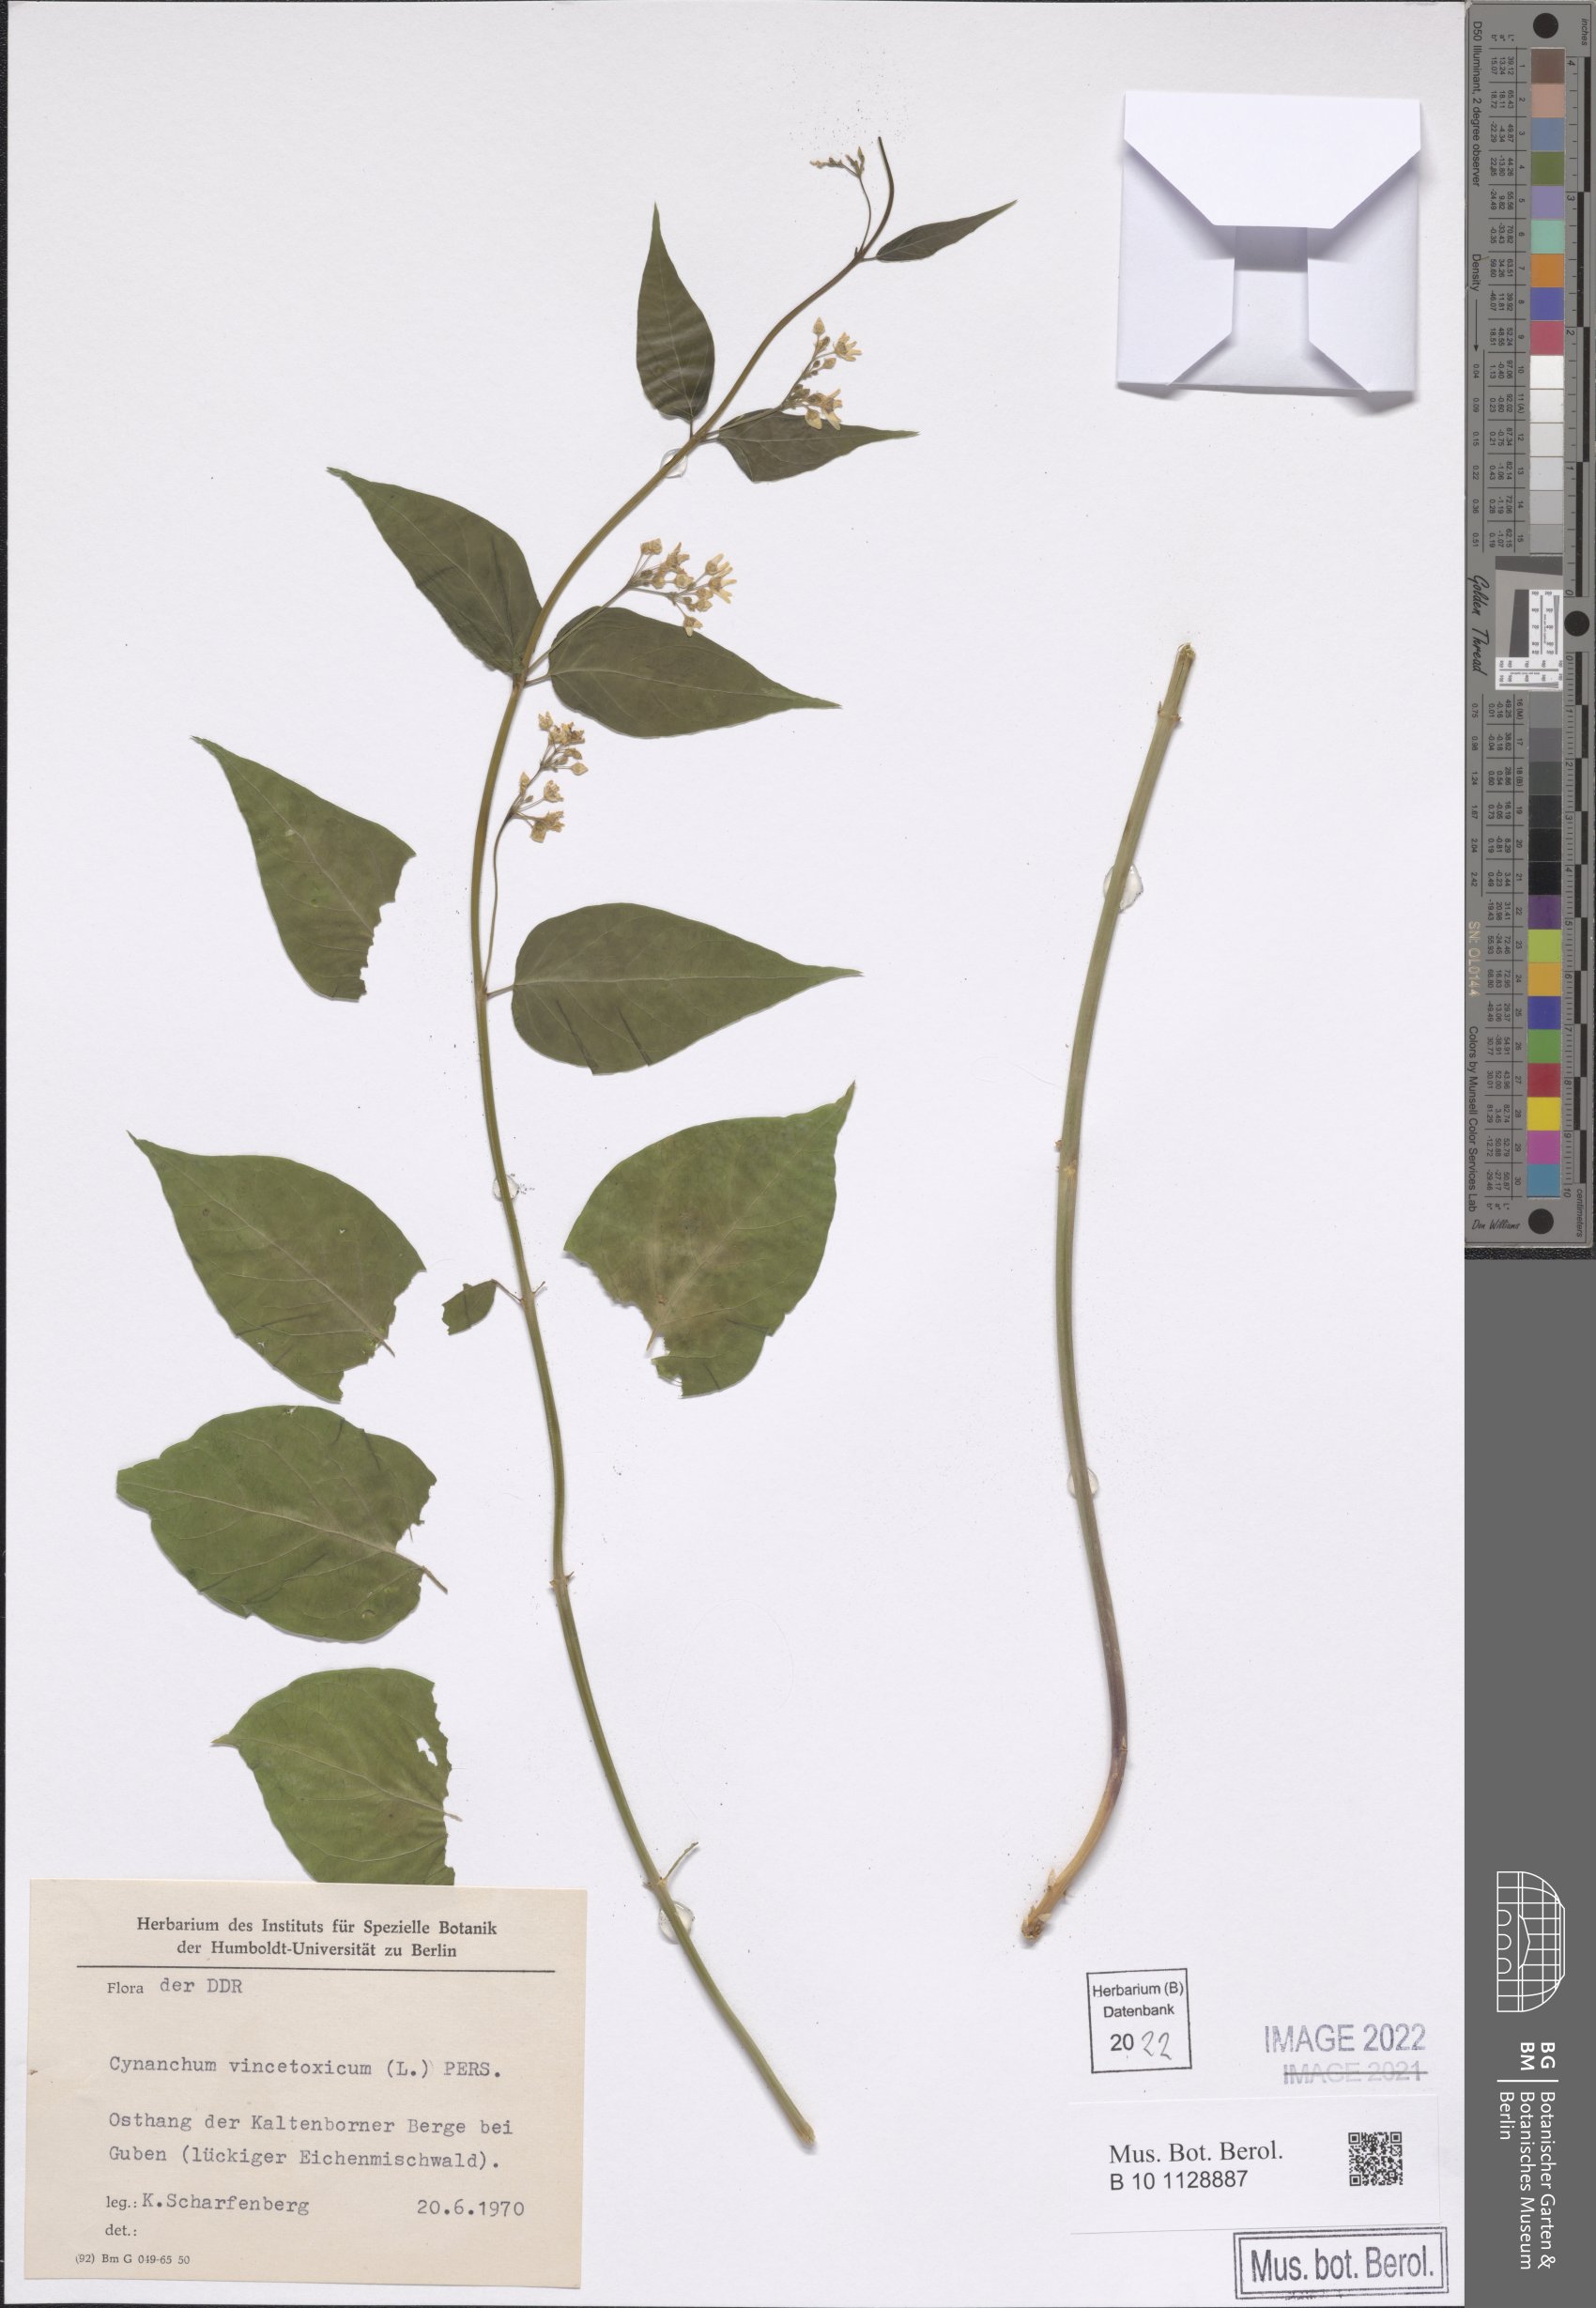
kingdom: Plantae
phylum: Tracheophyta
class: Magnoliopsida
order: Gentianales
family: Apocynaceae
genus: Vincetoxicum
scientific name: Vincetoxicum hirundinaria
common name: White swallowwort
